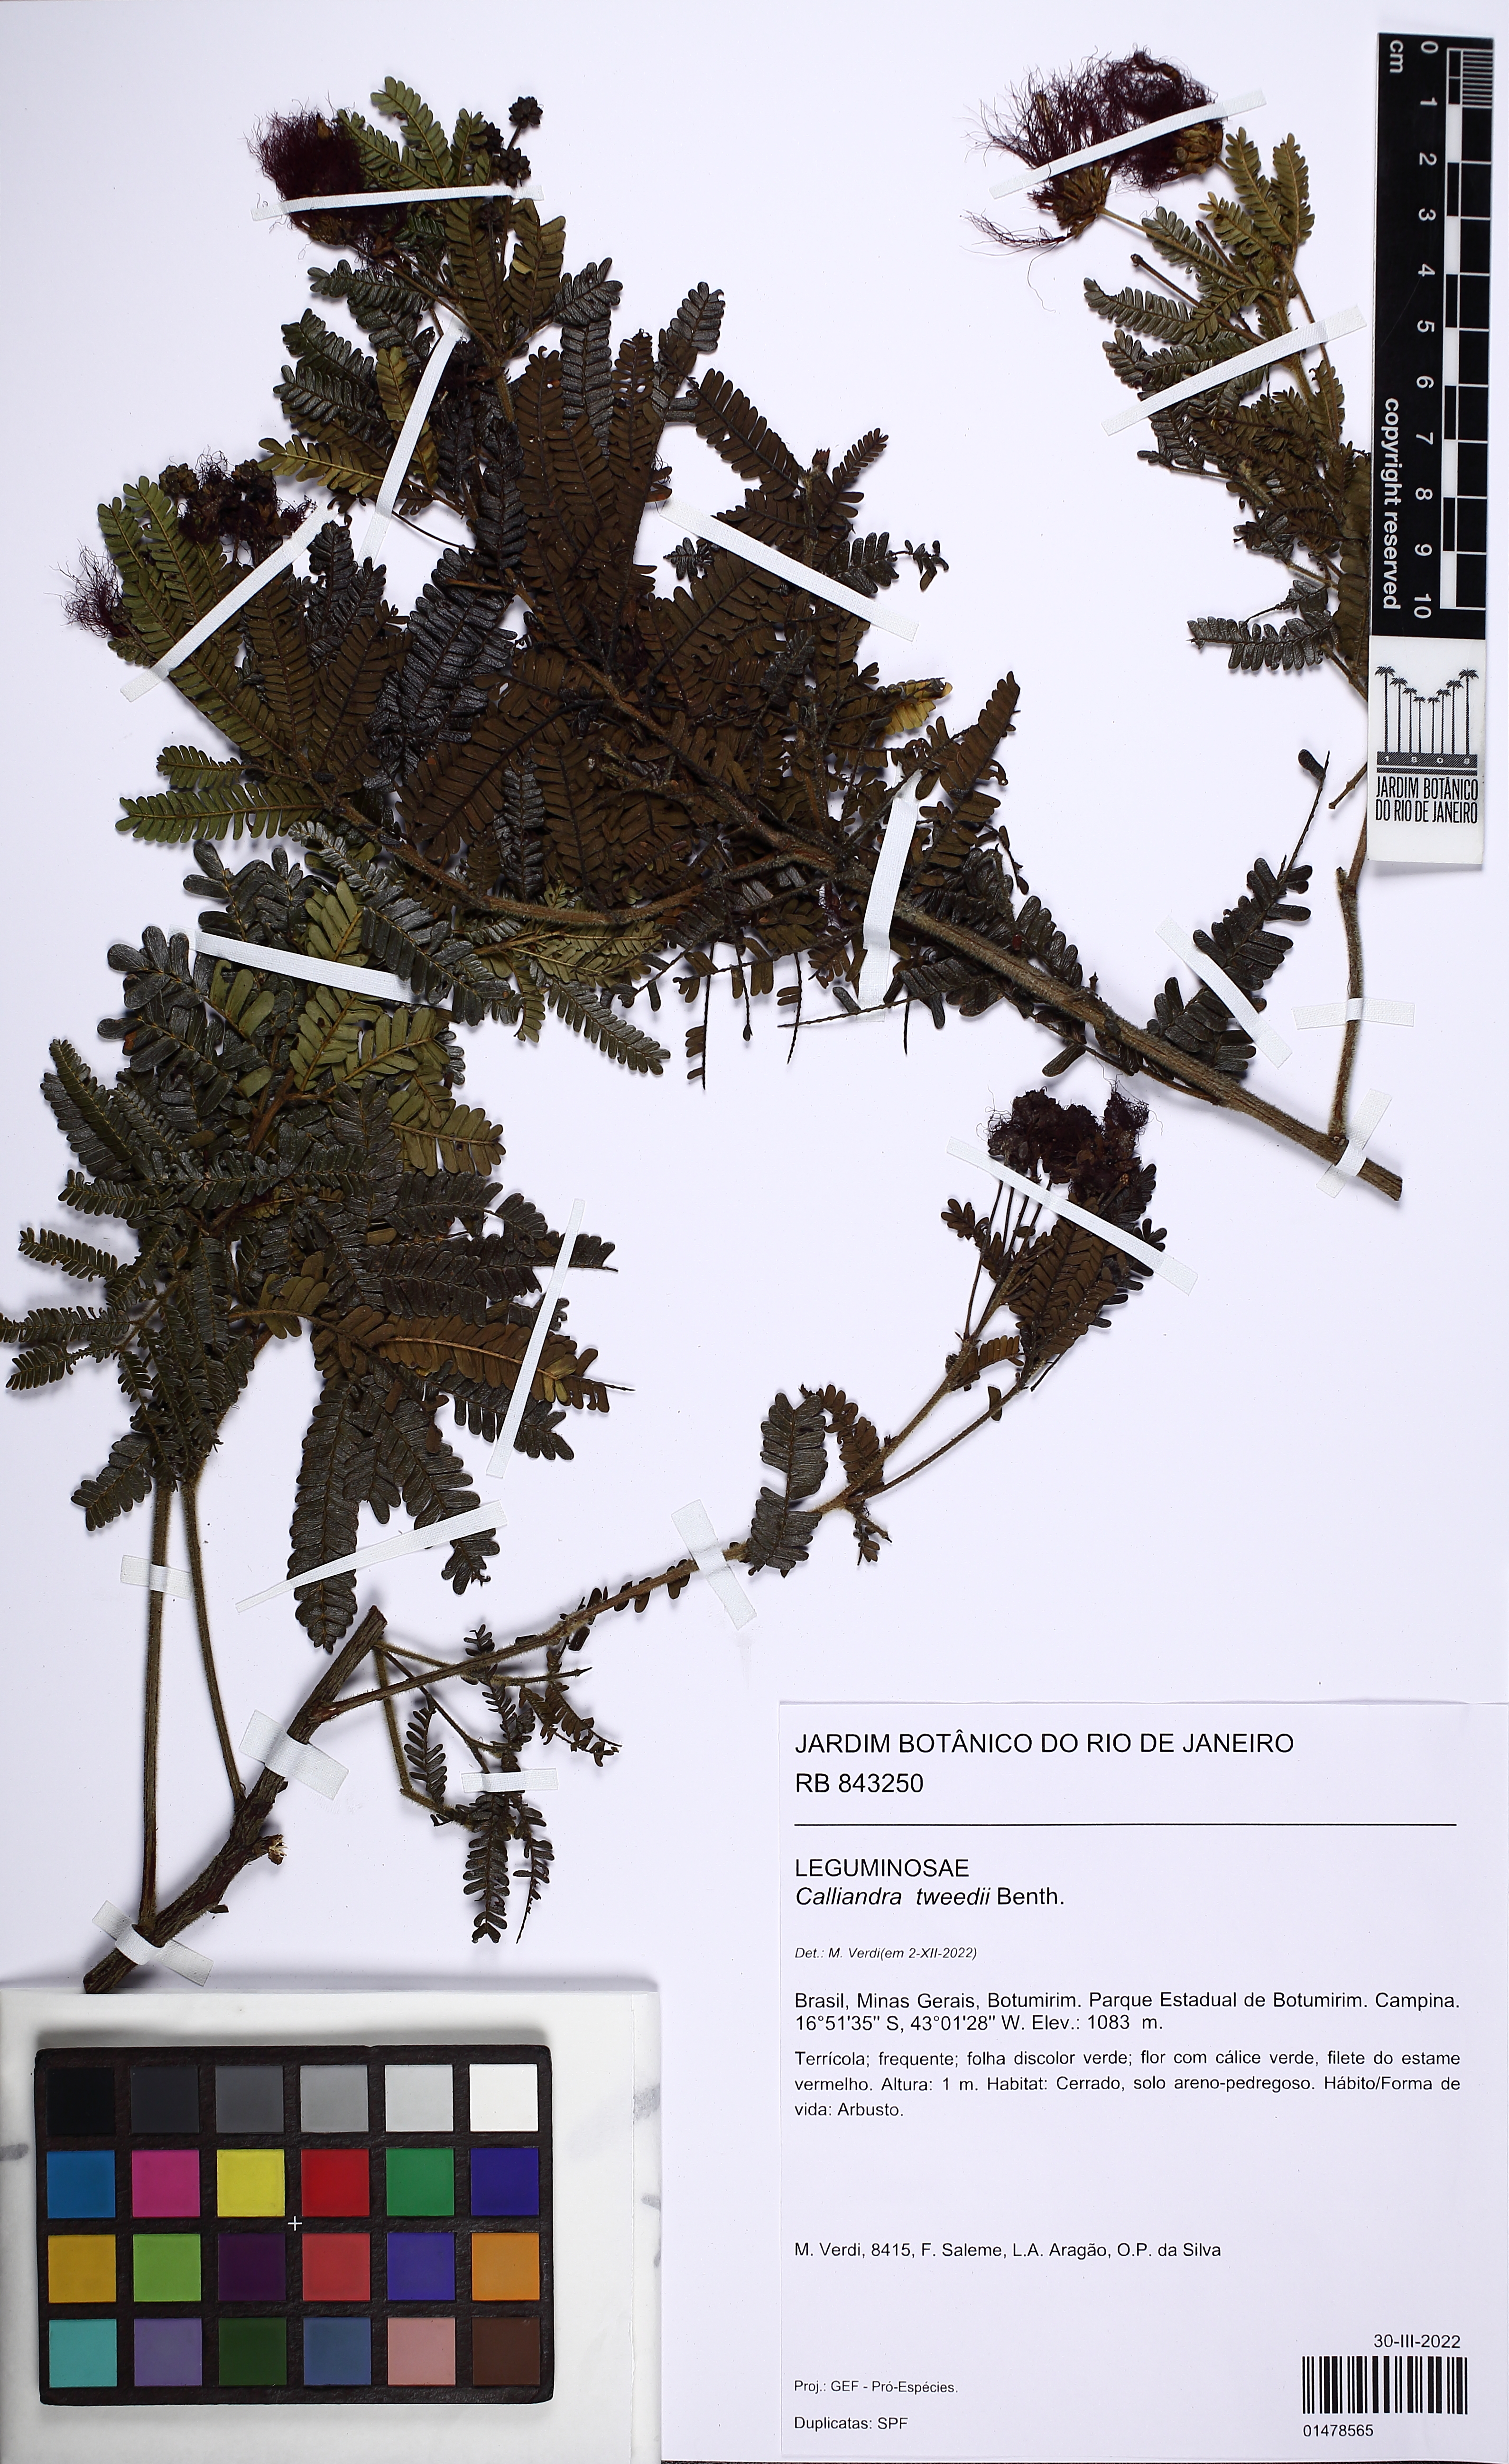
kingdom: Plantae
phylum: Tracheophyta
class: Magnoliopsida
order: Fabales
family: Fabaceae
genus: Calliandra
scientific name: Calliandra tweedii
